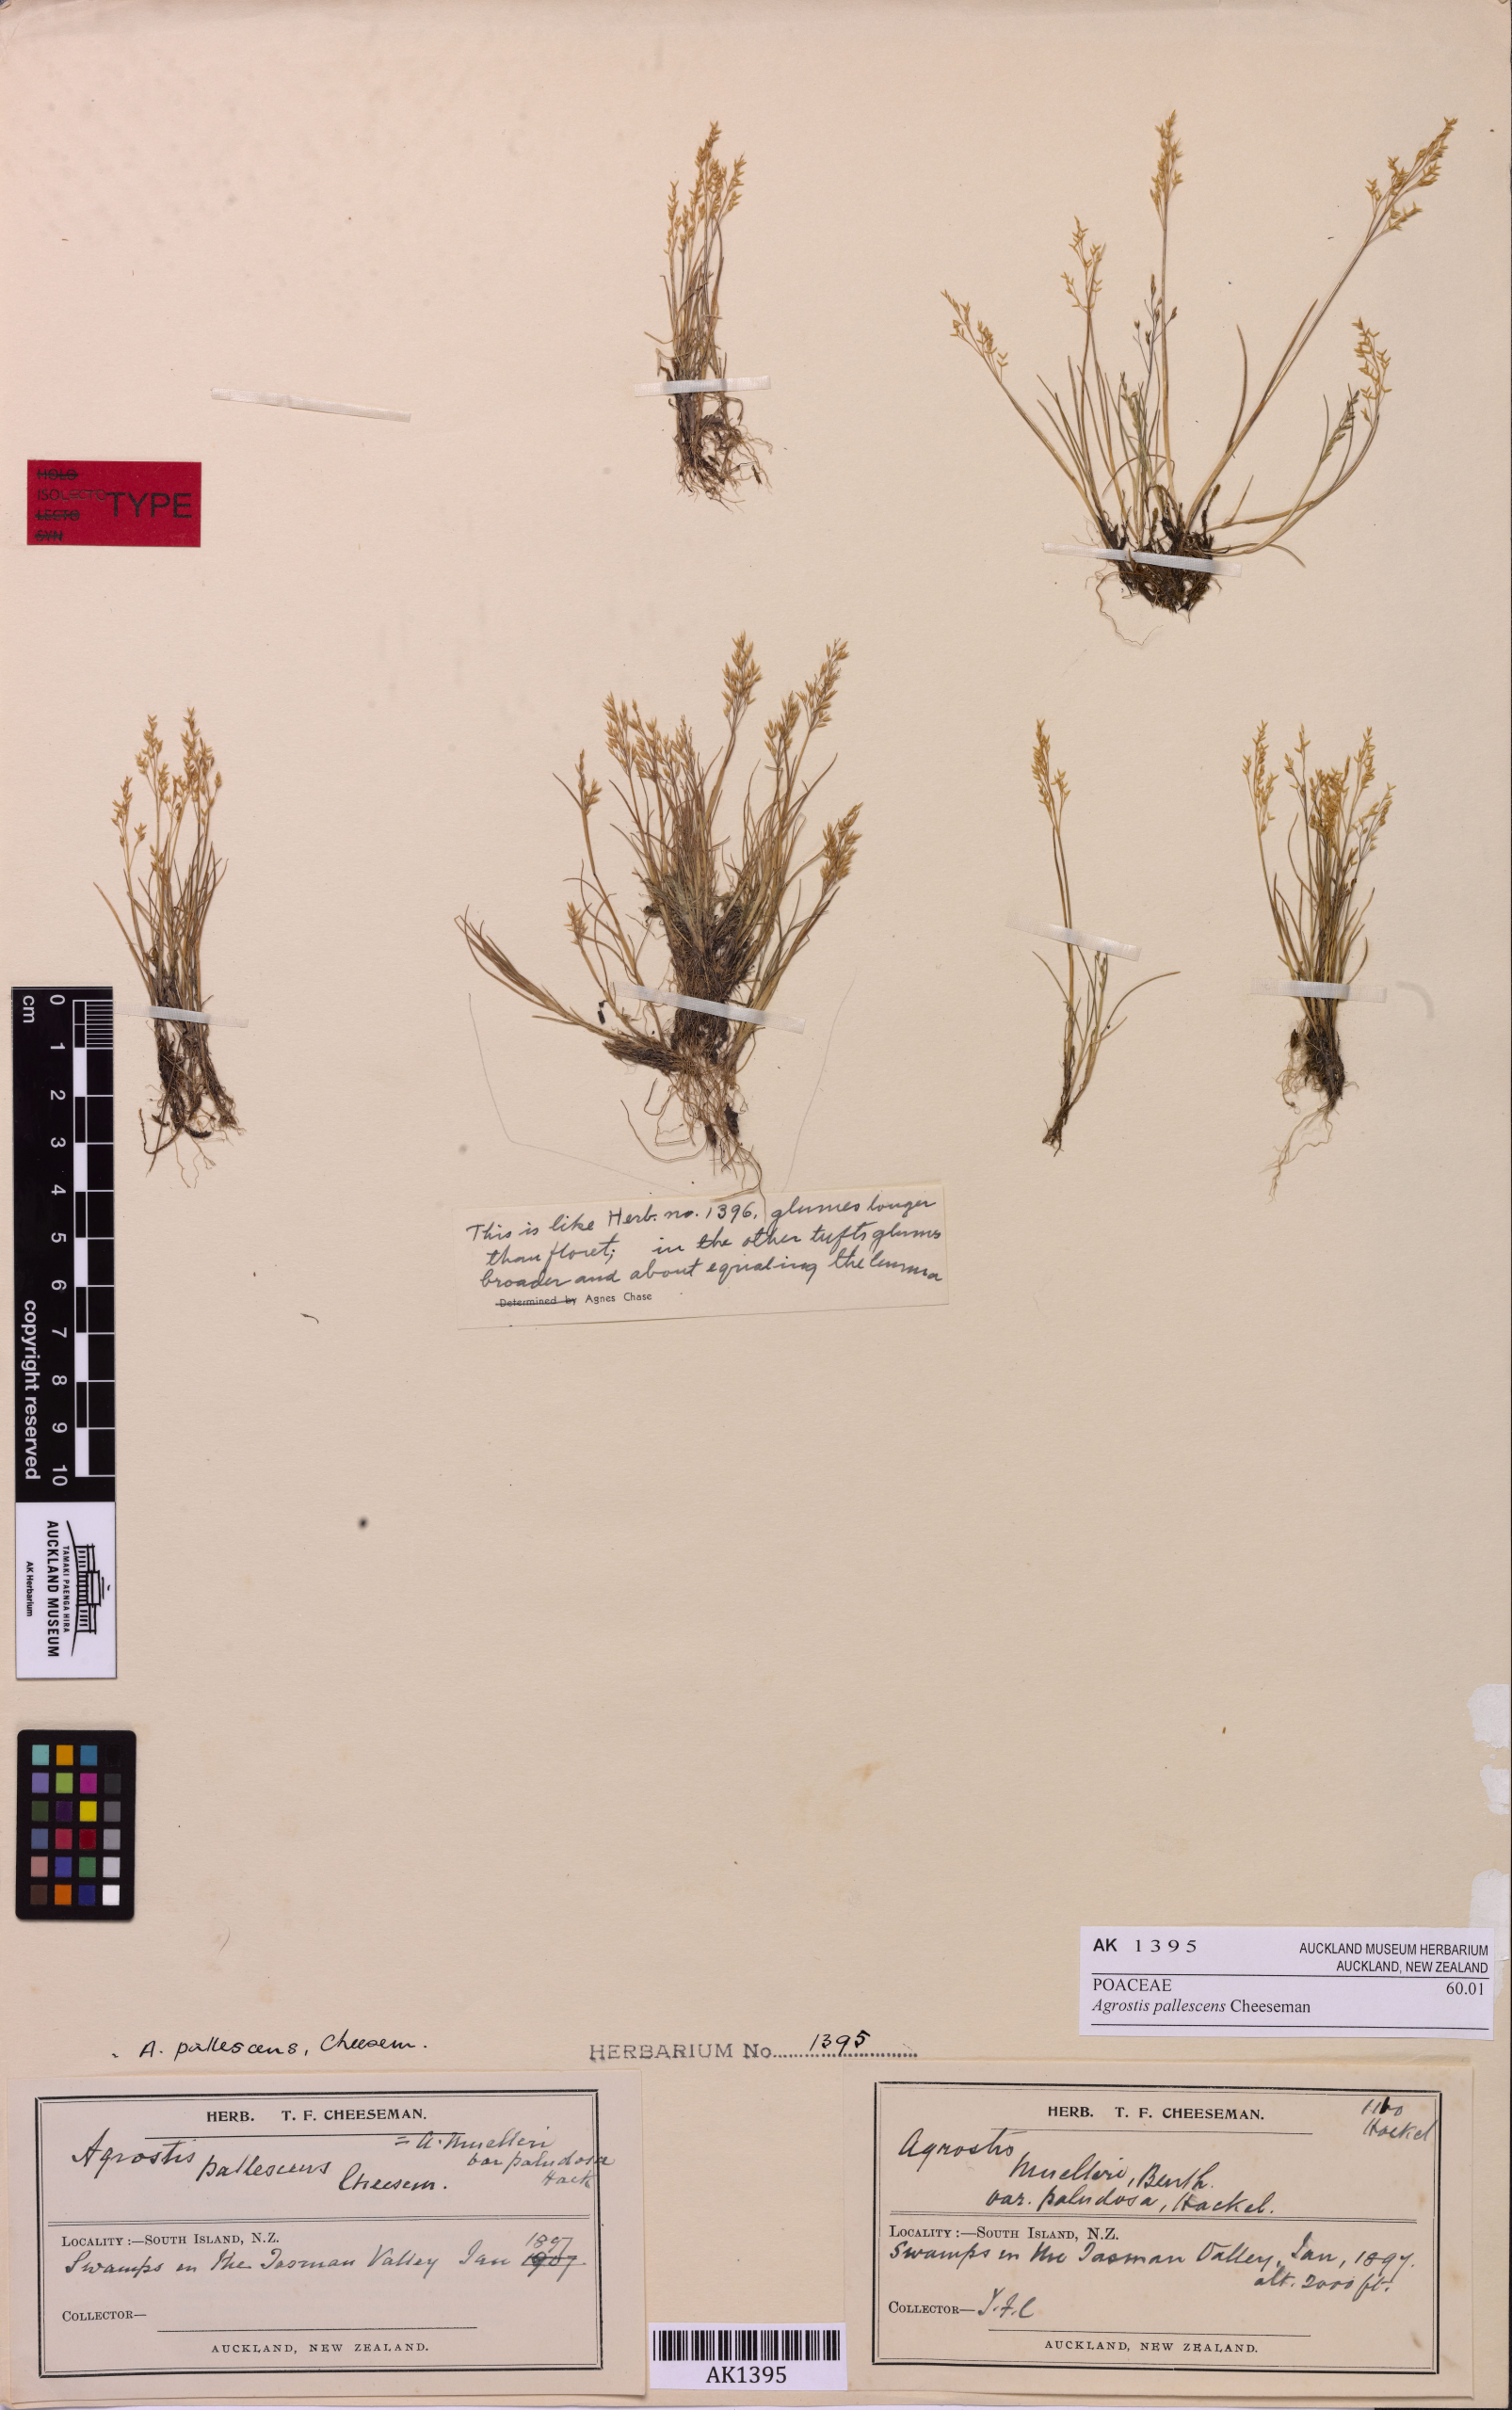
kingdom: Plantae
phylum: Tracheophyta
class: Liliopsida
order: Poales
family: Poaceae
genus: Agrostis
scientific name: Agrostis pallescens
